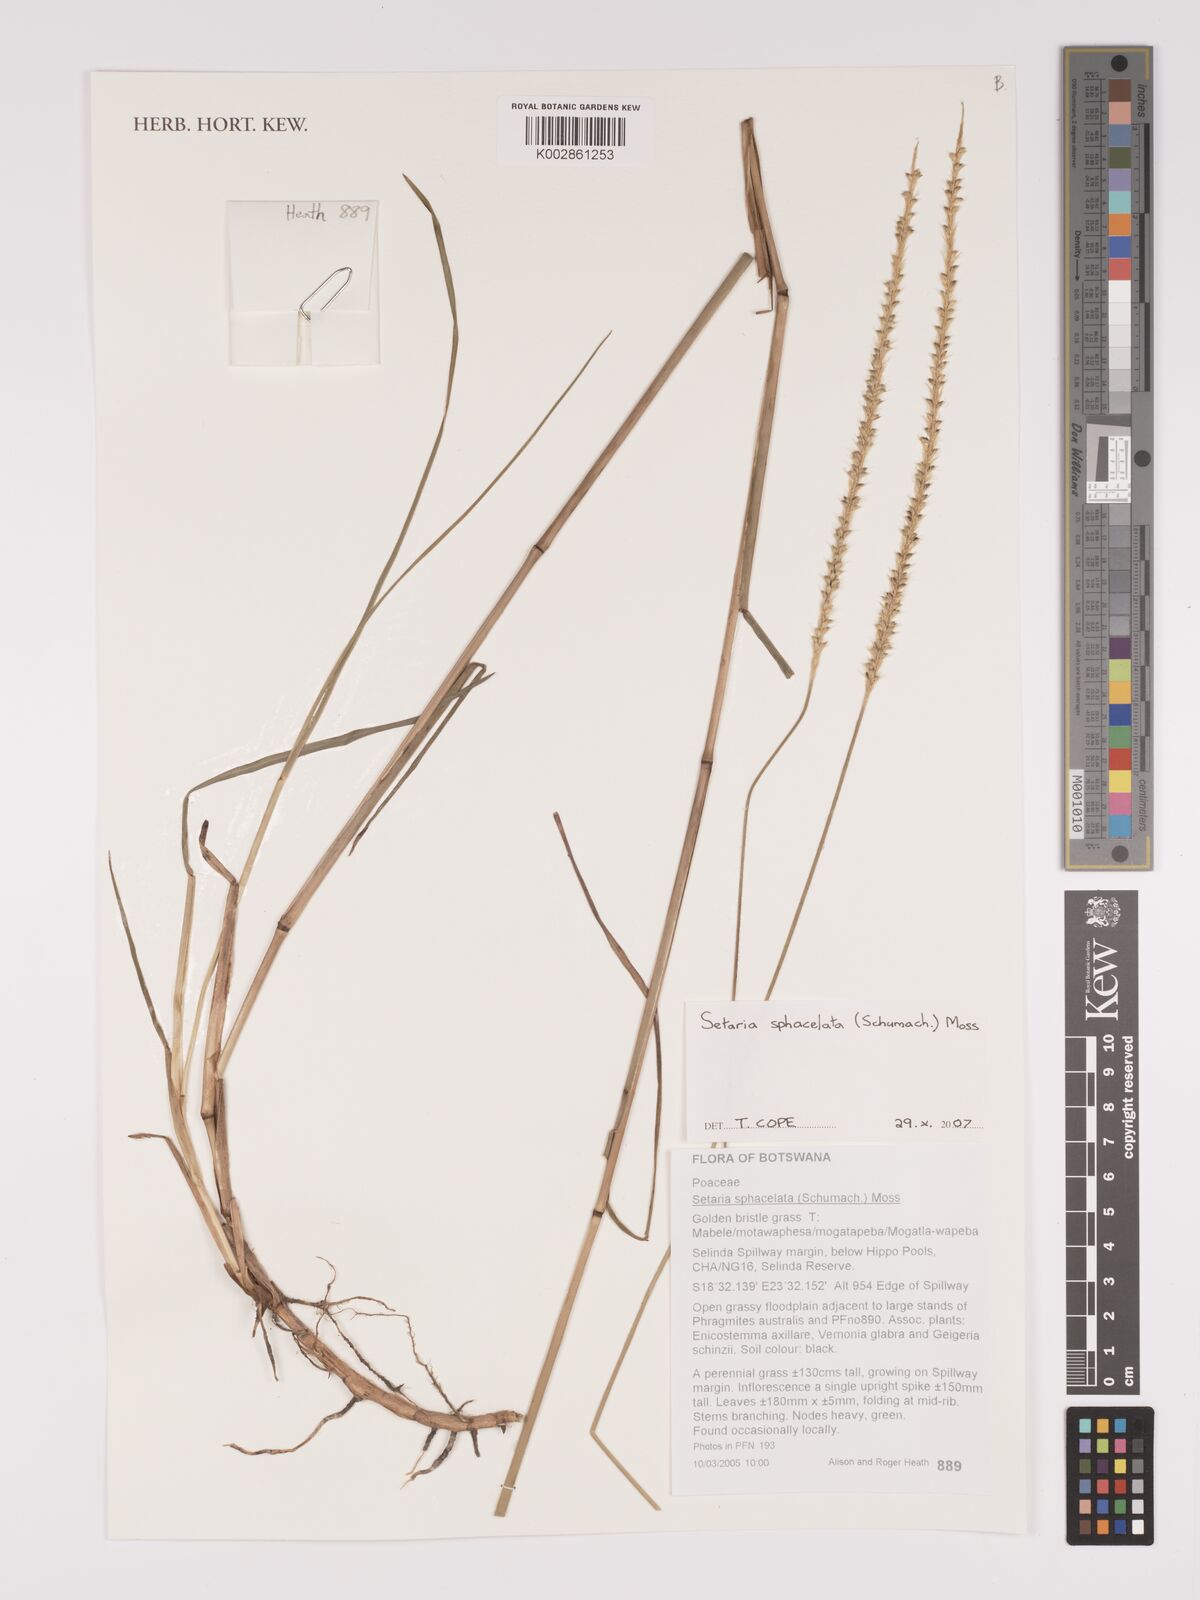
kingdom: Plantae
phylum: Tracheophyta
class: Liliopsida
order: Poales
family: Poaceae
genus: Setaria
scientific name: Setaria sphacelata
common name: African bristlegrass
